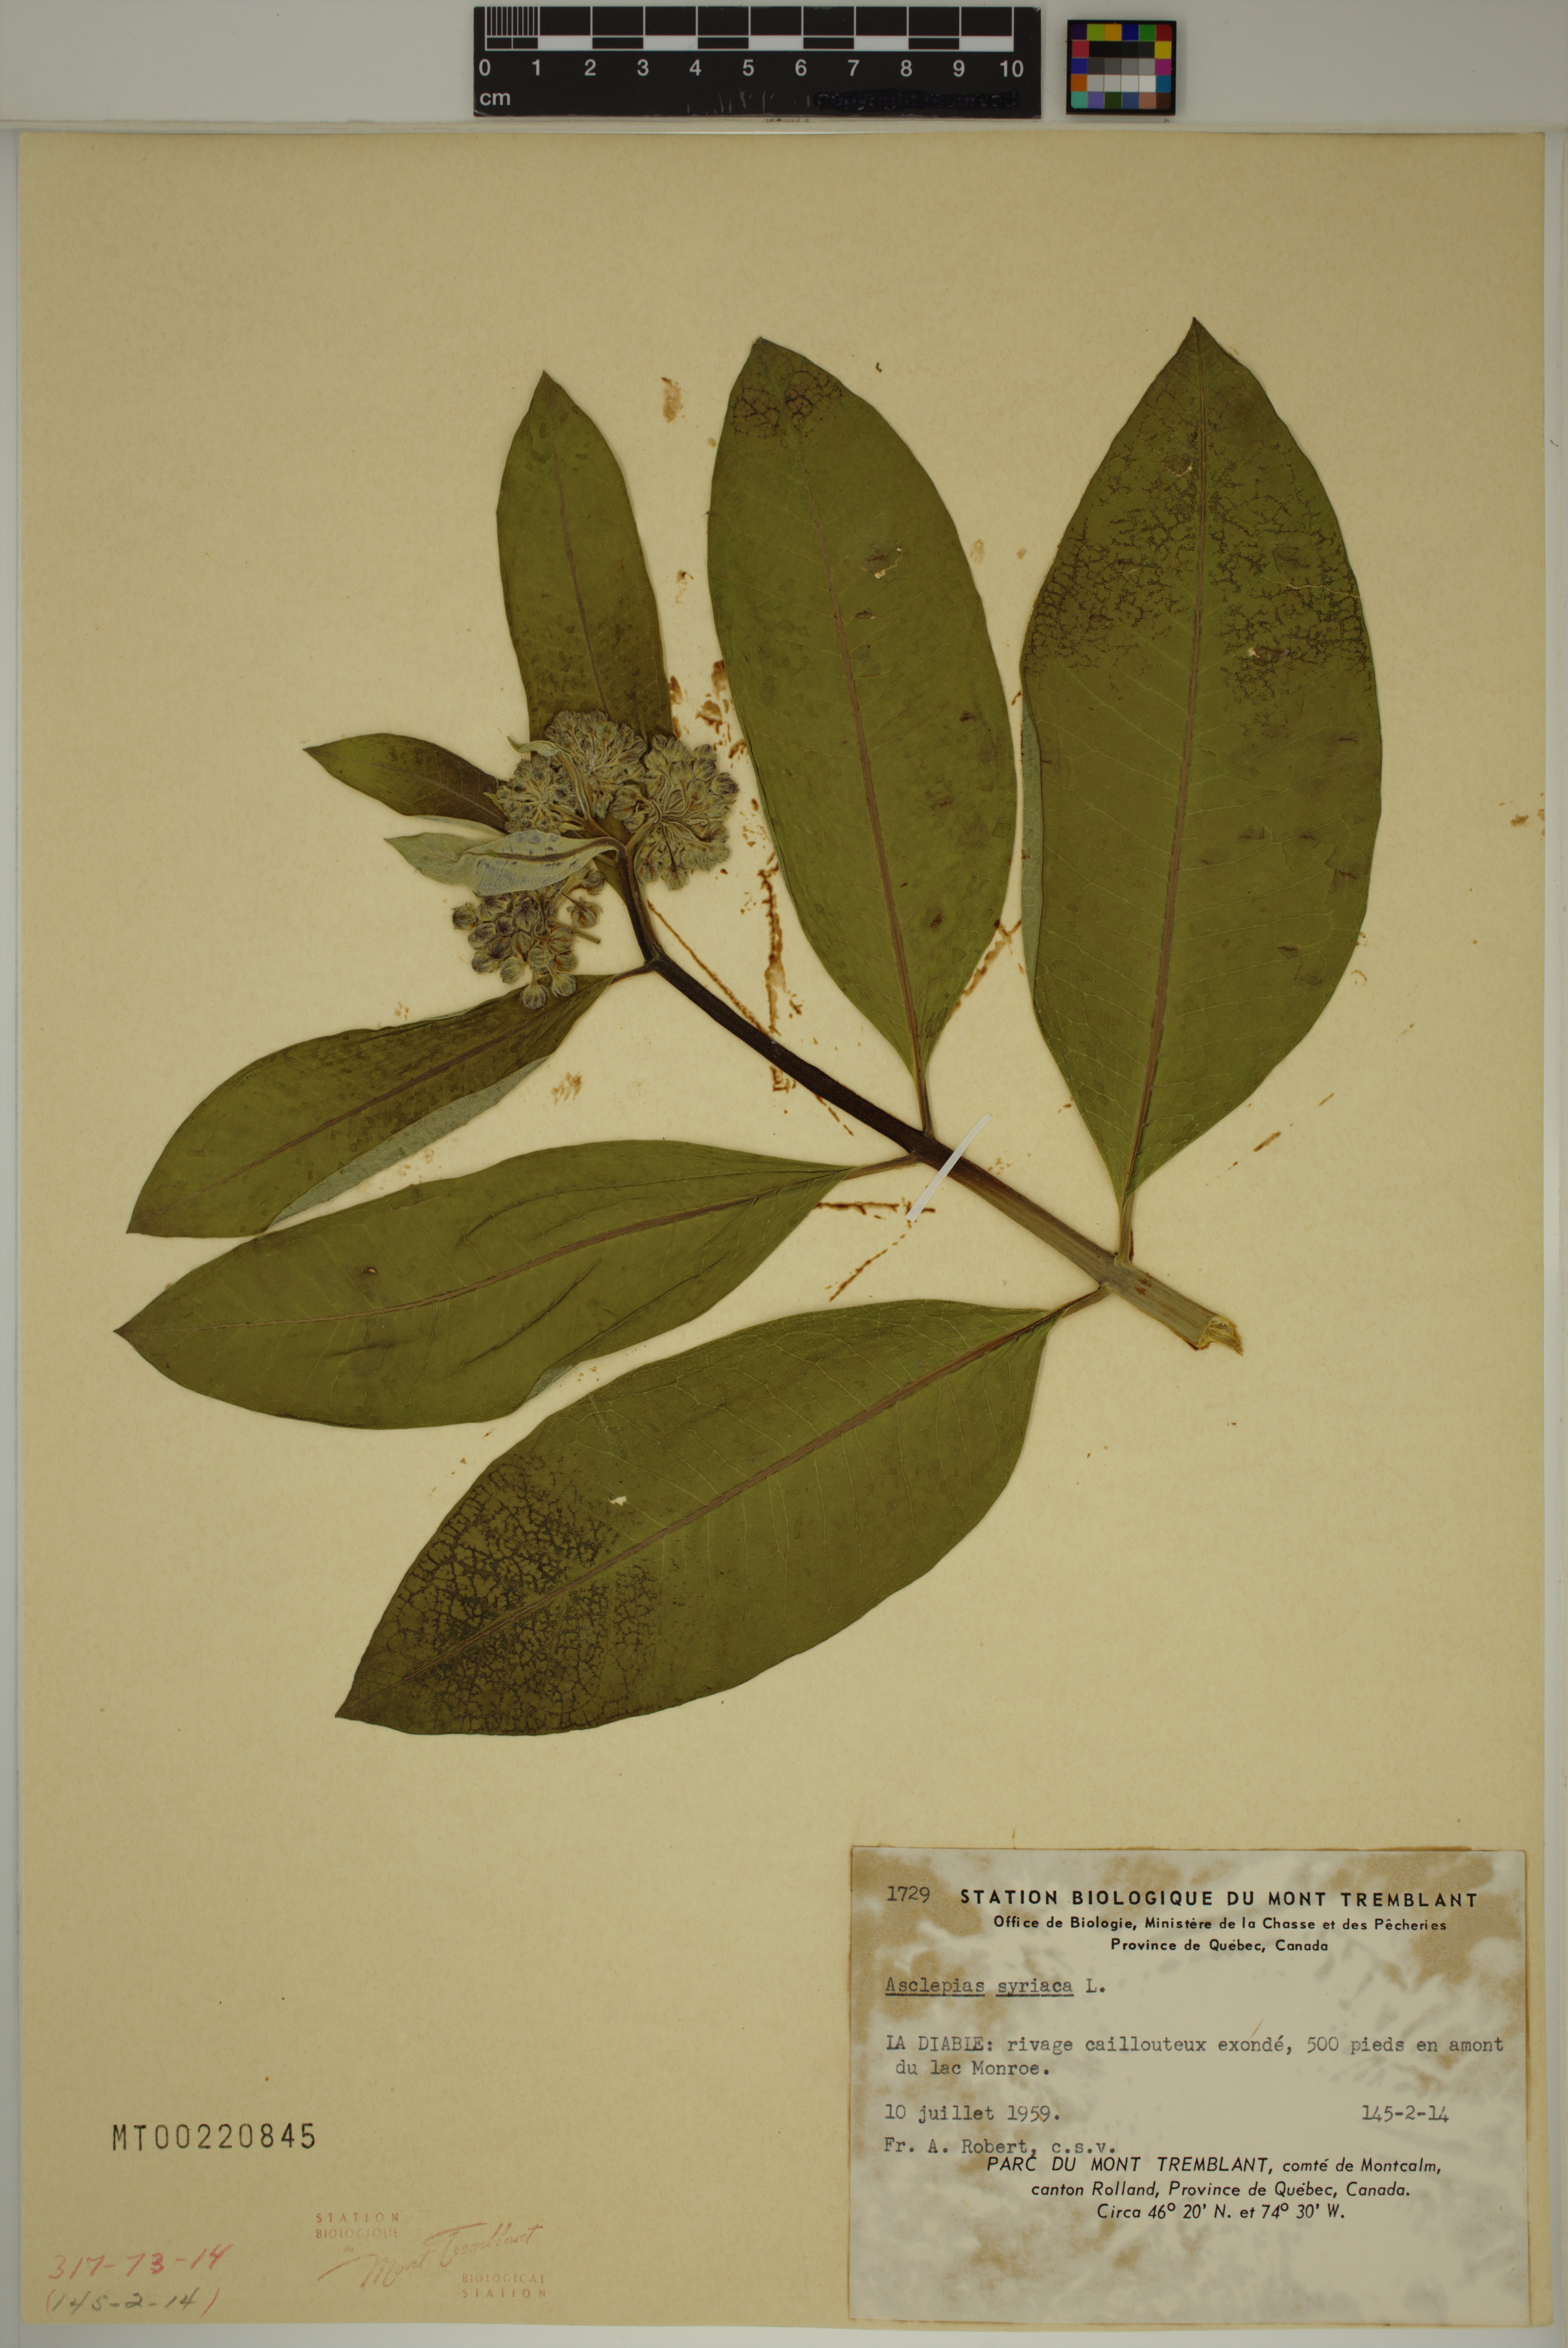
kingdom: Plantae
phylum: Tracheophyta
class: Magnoliopsida
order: Gentianales
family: Apocynaceae
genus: Asclepias
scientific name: Asclepias syriaca
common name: Common milkweed
